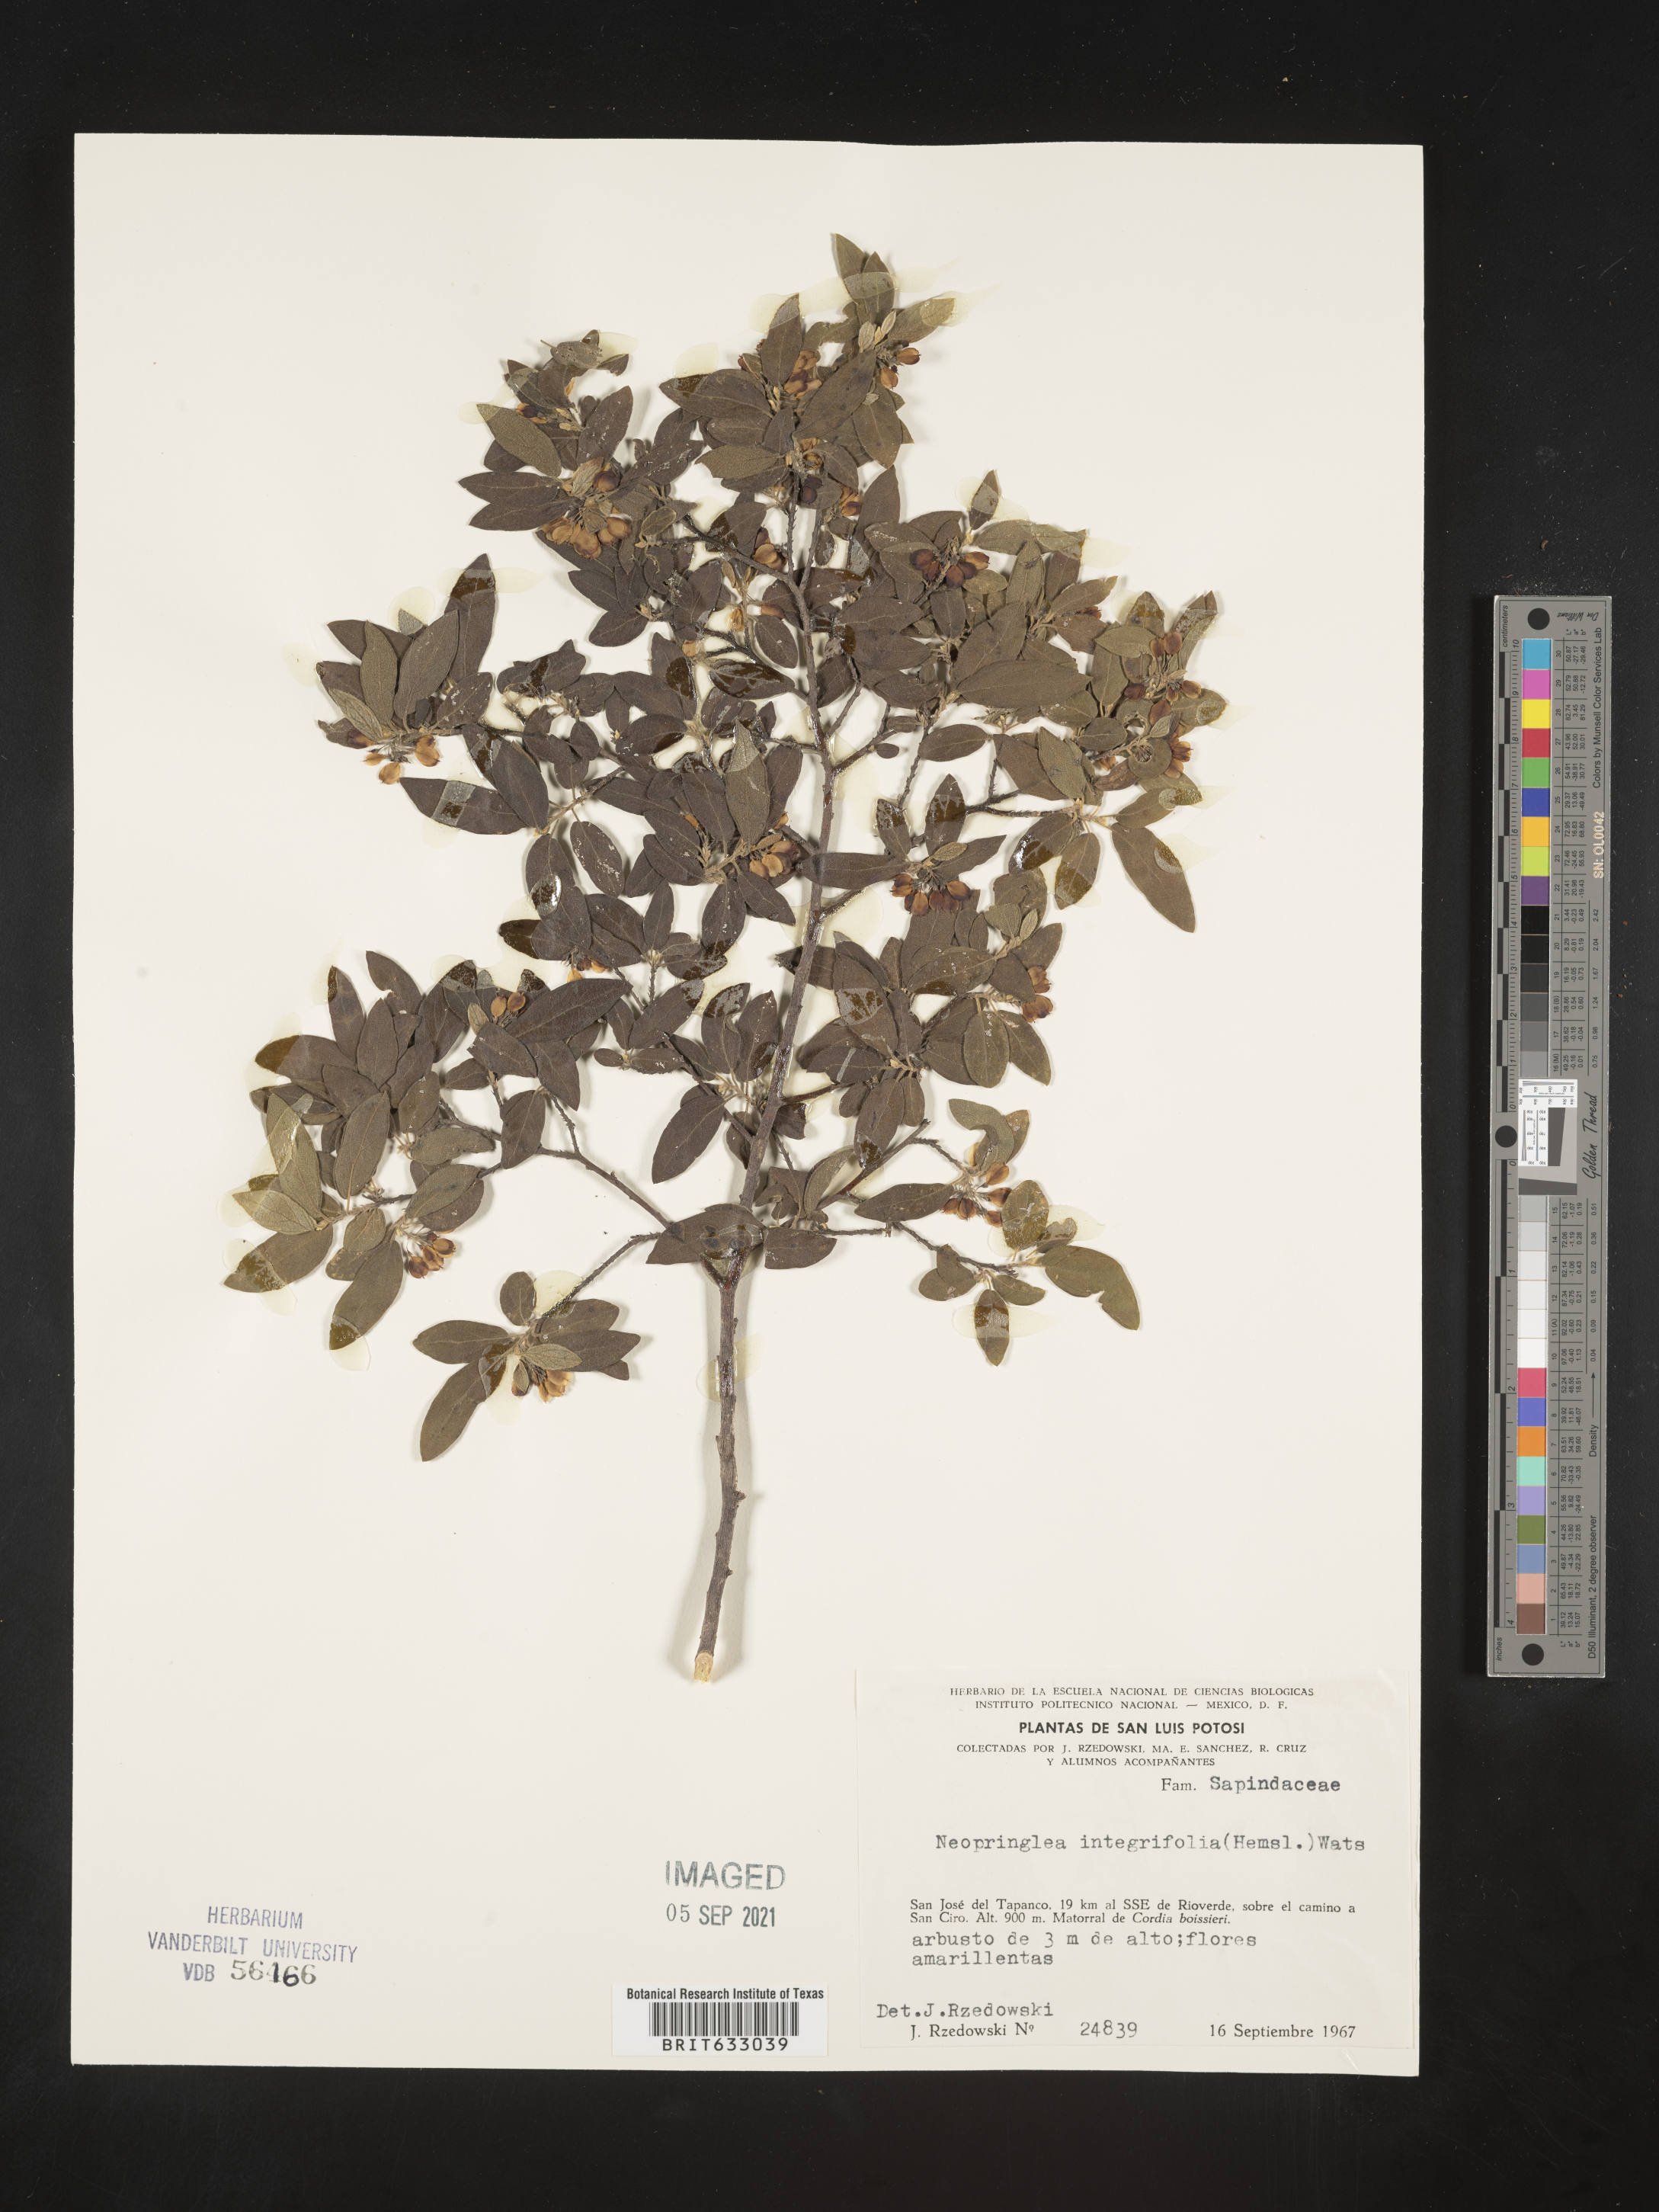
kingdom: Plantae
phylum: Tracheophyta
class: Magnoliopsida
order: Malpighiales
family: Salicaceae
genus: Neopringlea
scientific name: Neopringlea integrifolia
